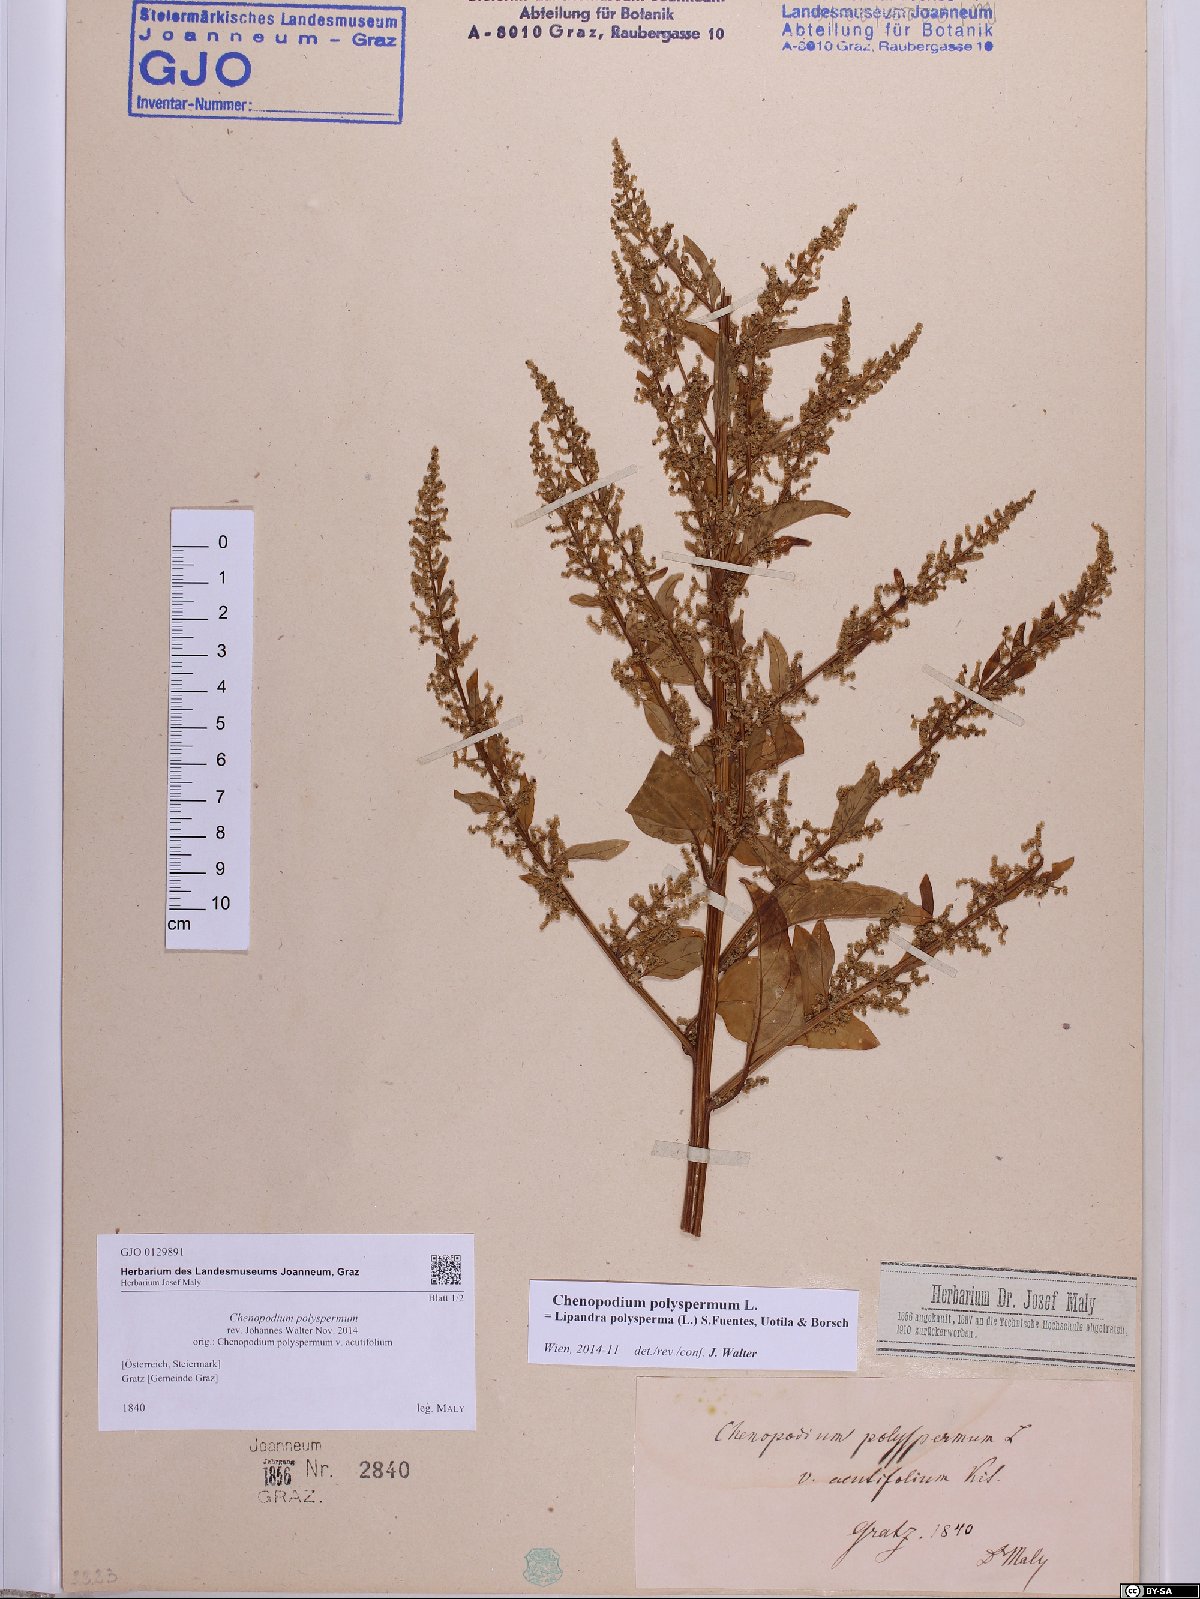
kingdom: Plantae
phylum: Tracheophyta
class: Magnoliopsida
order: Caryophyllales
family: Amaranthaceae
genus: Lipandra
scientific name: Lipandra polysperma
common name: Many-seed goosefoot
